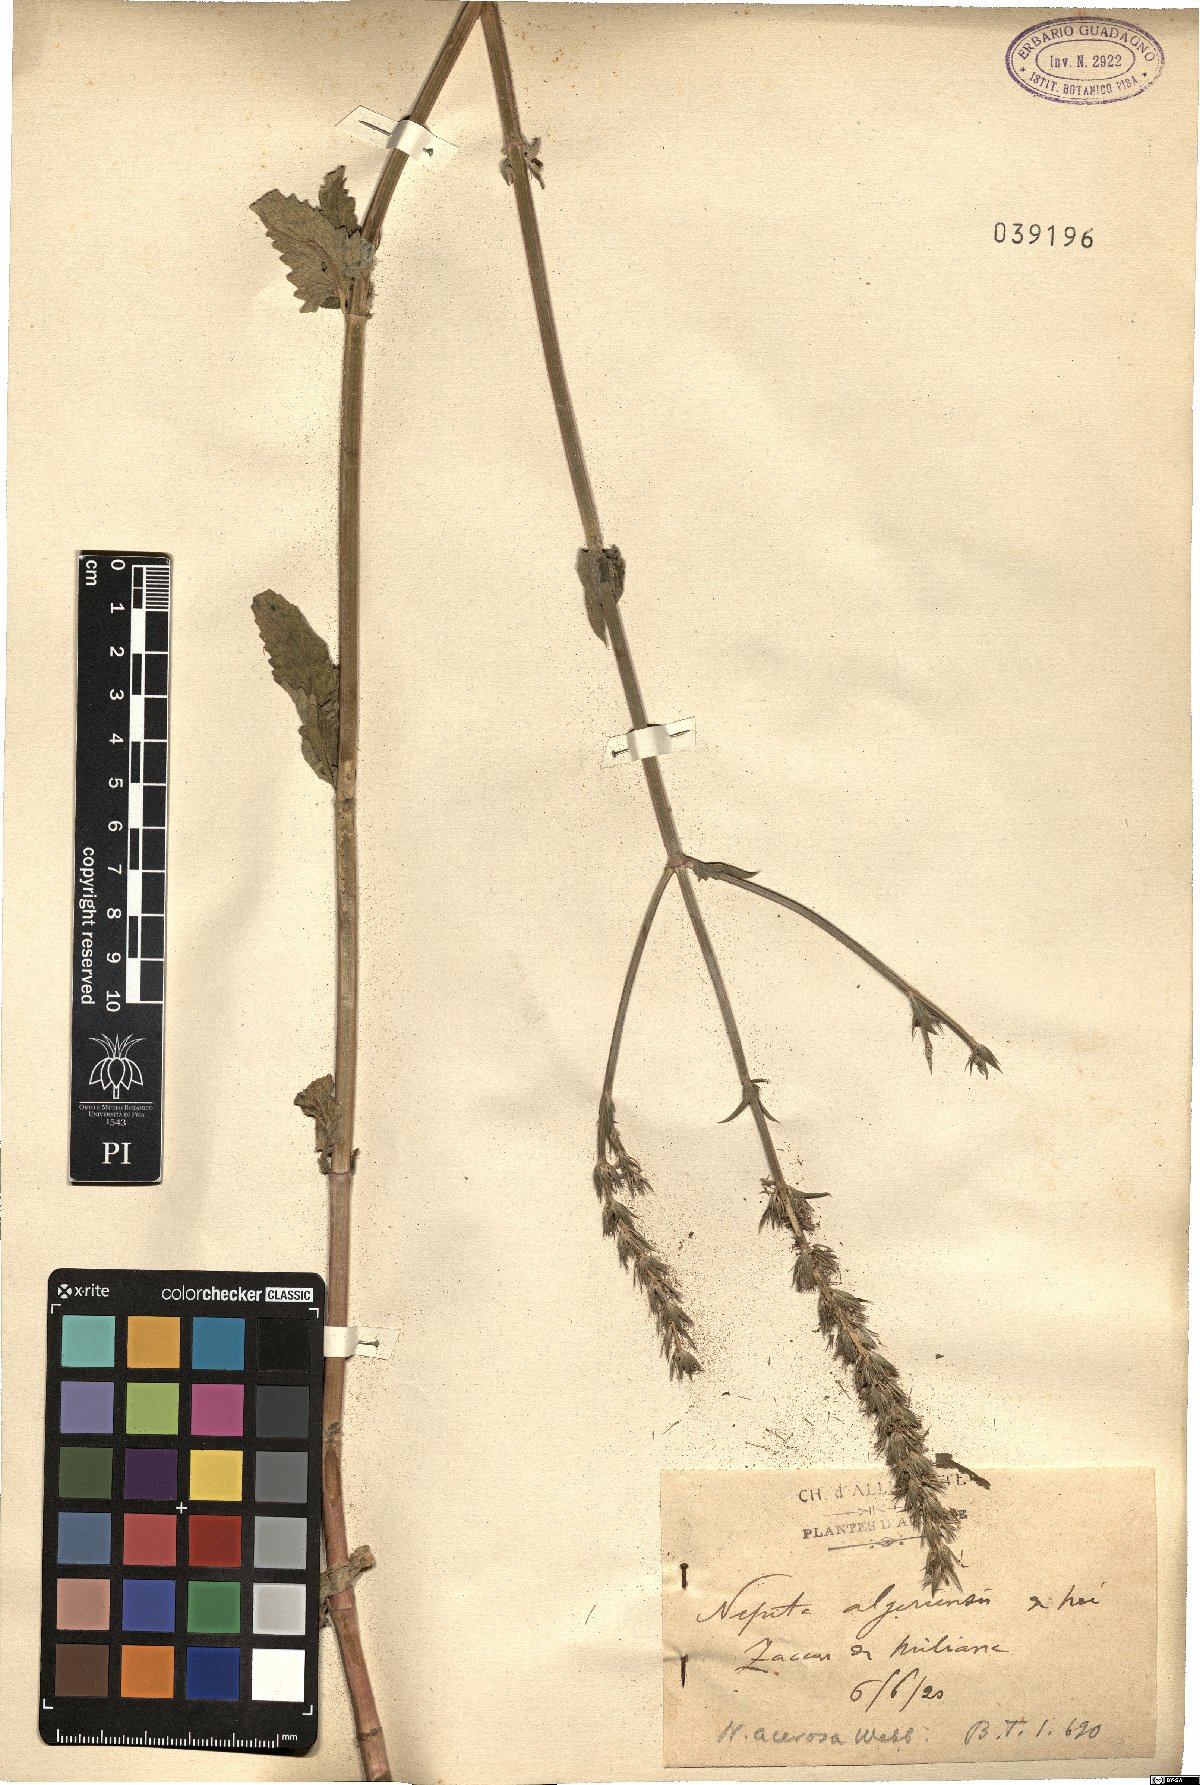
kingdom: Plantae
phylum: Tracheophyta
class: Magnoliopsida
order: Lamiales
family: Lamiaceae
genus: Nepeta
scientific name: Nepeta algeriensis
